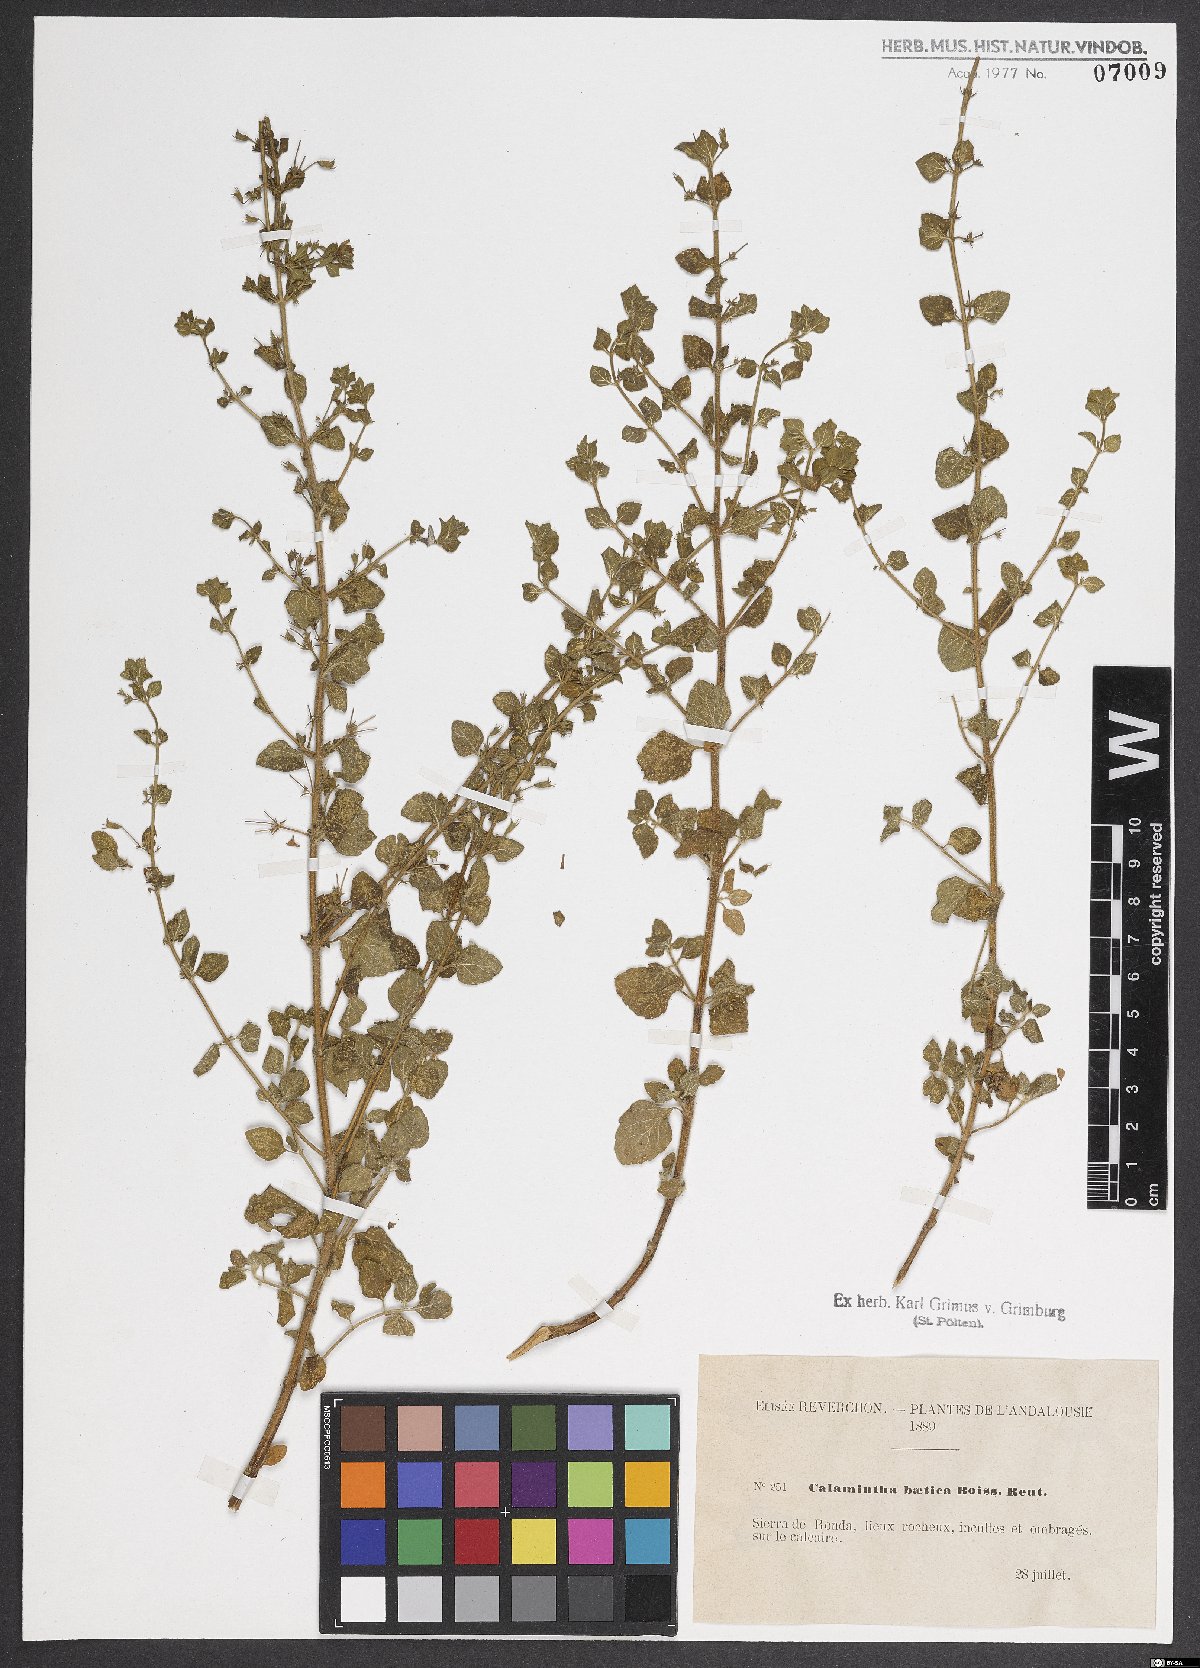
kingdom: Plantae
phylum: Tracheophyta
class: Magnoliopsida
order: Lamiales
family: Lamiaceae
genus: Calamintha
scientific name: Calamintha
